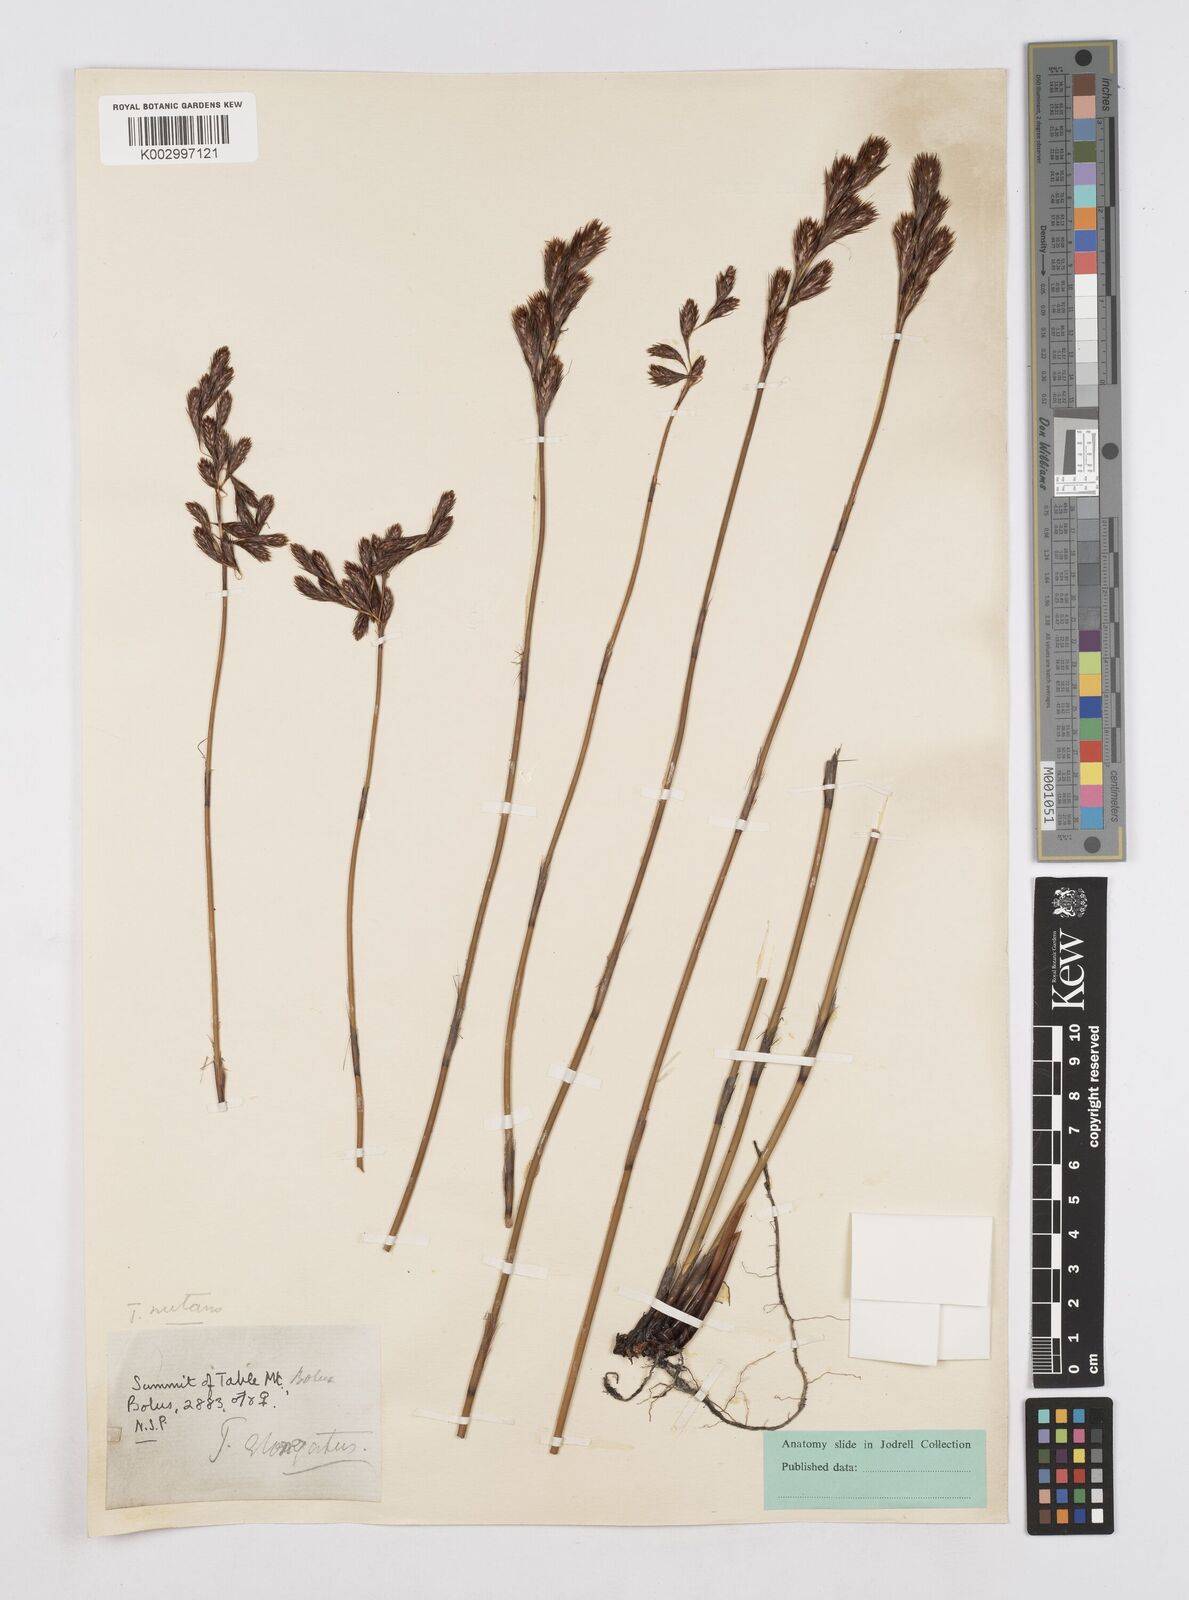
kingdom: Plantae
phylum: Tracheophyta
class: Liliopsida
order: Poales
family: Restionaceae
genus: Thamnochortus
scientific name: Thamnochortus nutans
